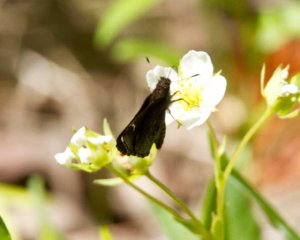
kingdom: Animalia
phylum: Arthropoda
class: Insecta
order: Lepidoptera
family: Hesperiidae
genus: Mastor
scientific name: Mastor vialis
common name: Common Roadside-Skipper
